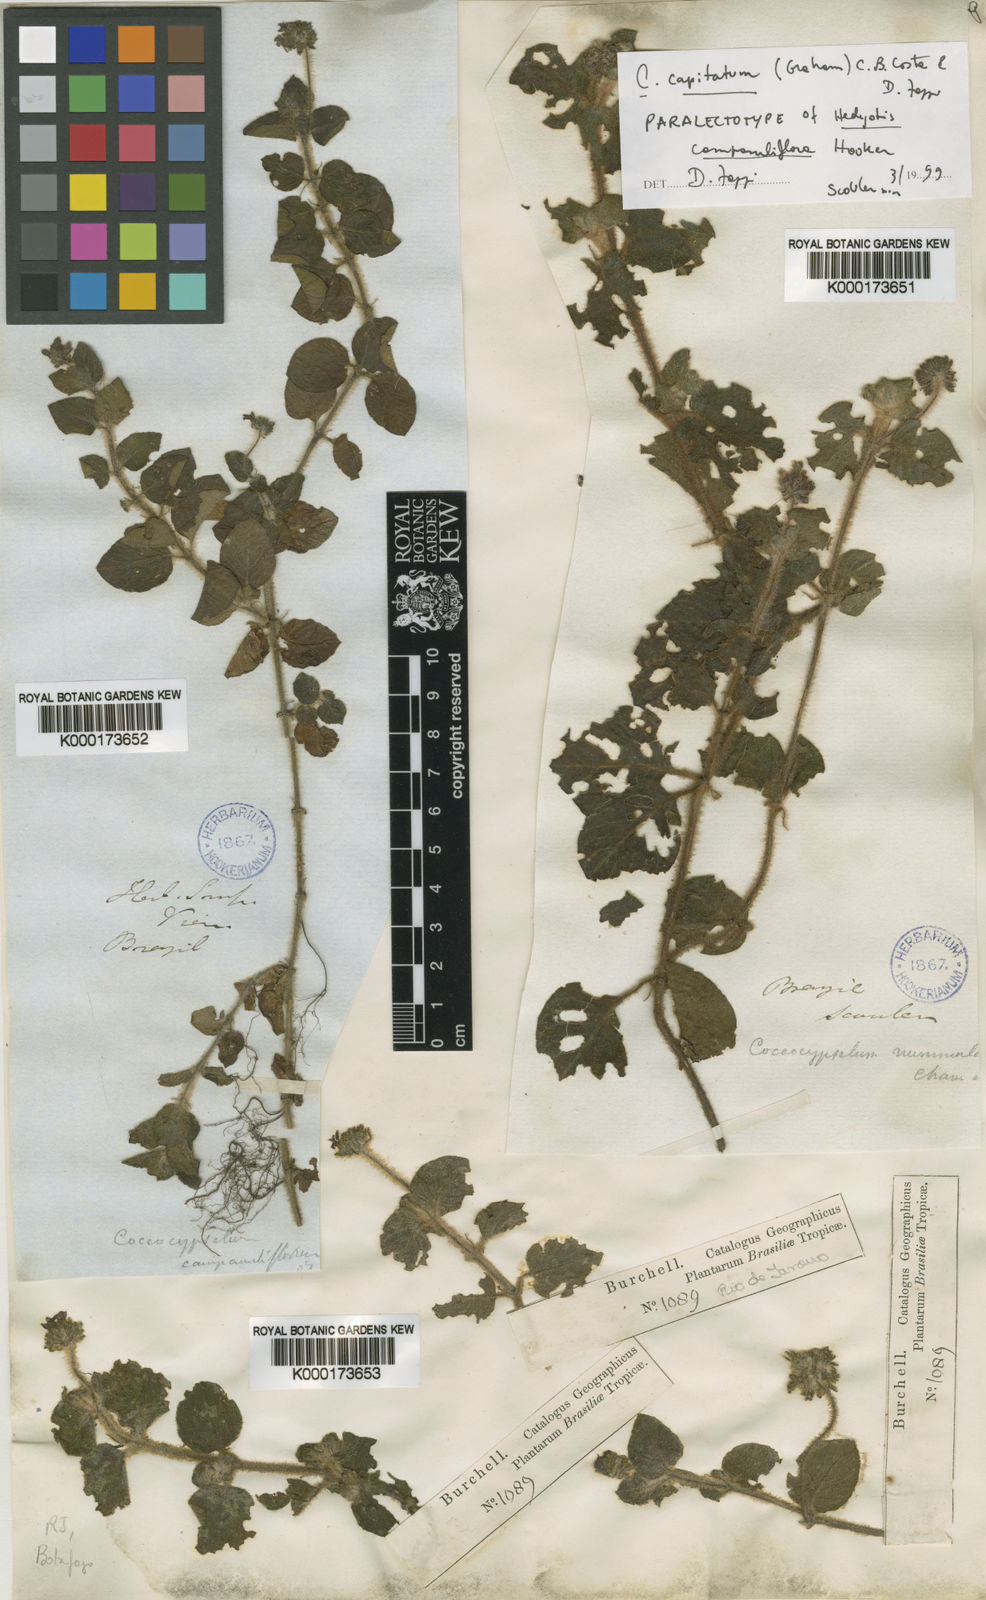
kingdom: Plantae
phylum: Tracheophyta
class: Magnoliopsida
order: Gentianales
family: Rubiaceae
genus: Coccocypselum
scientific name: Coccocypselum
